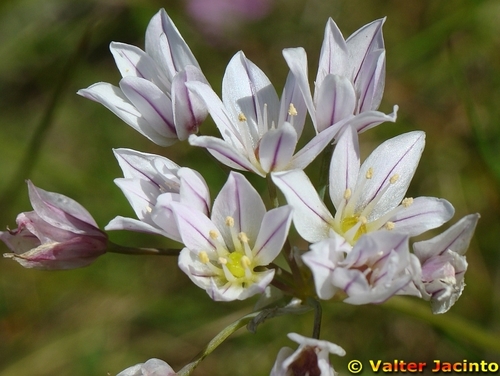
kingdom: Plantae
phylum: Tracheophyta
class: Liliopsida
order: Asparagales
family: Amaryllidaceae
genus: Allium
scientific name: Allium trifoliatum
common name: Pink garlic
